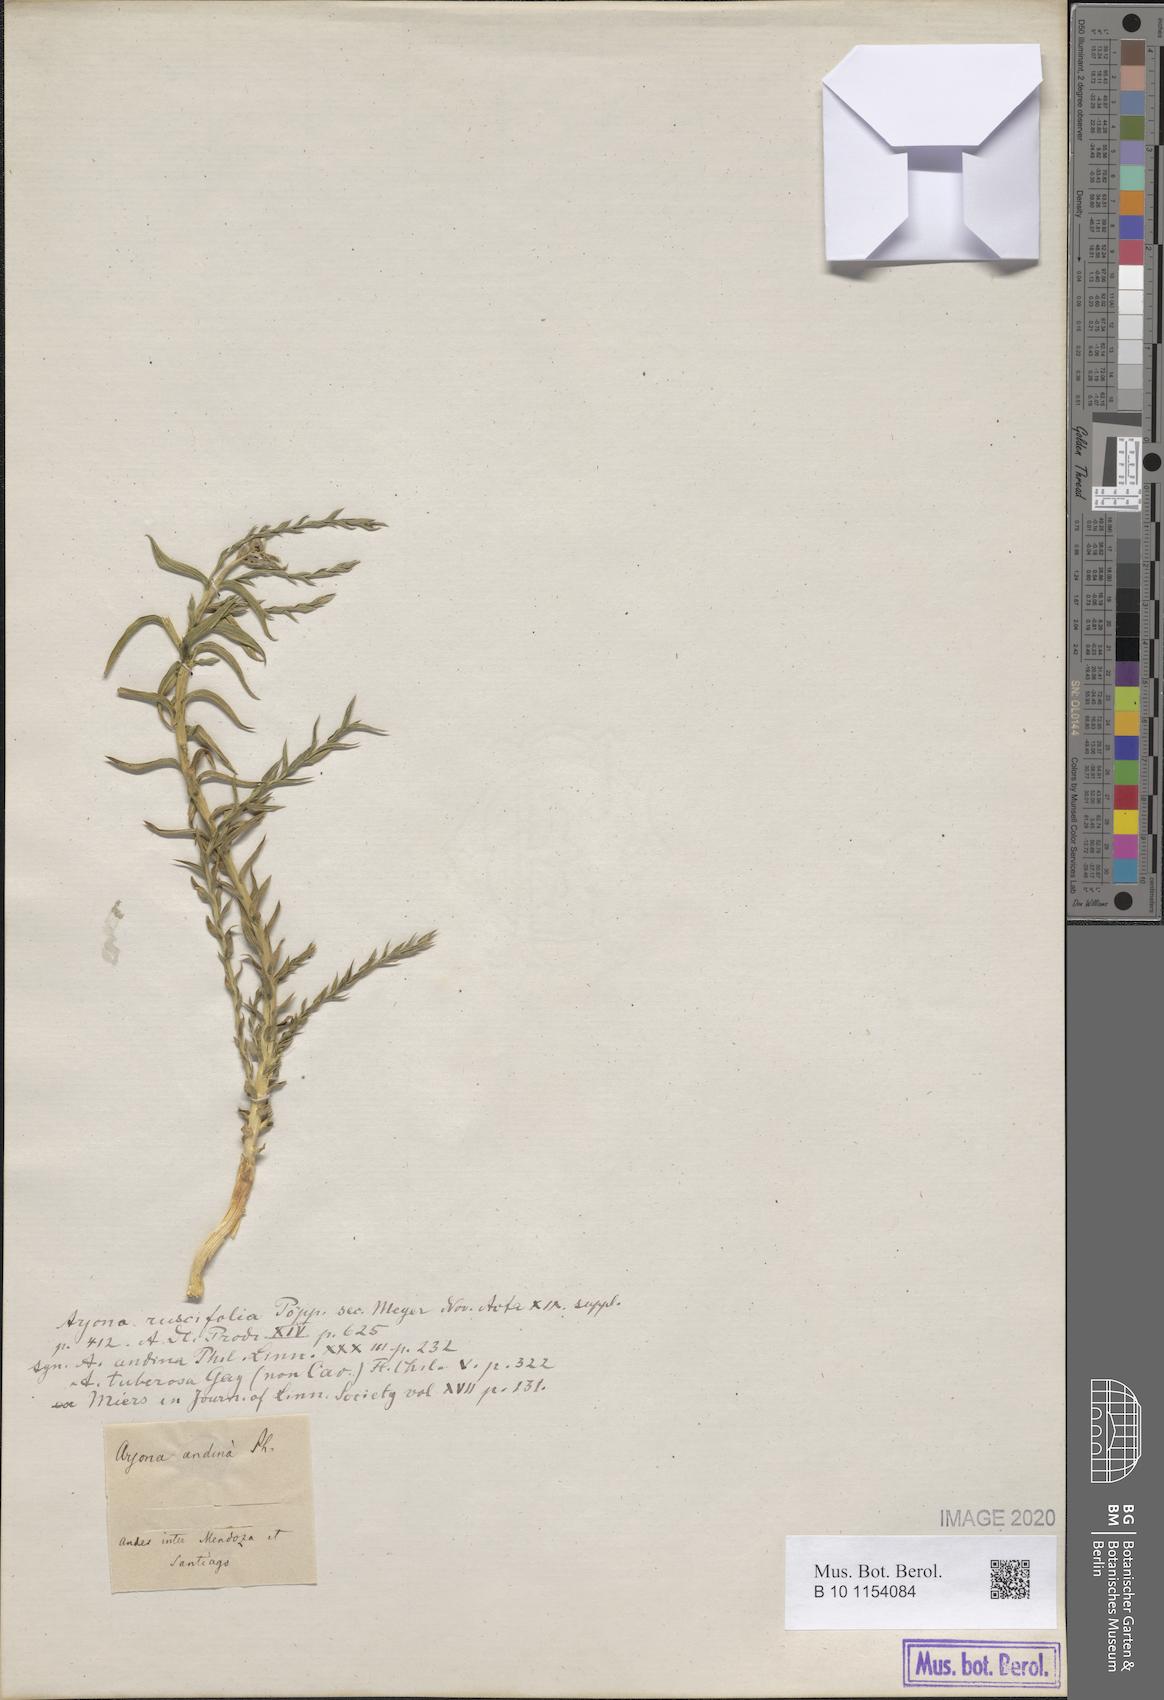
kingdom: Plantae
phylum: Tracheophyta
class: Magnoliopsida
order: Santalales
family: Schoepfiaceae
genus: Arjona
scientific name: Arjona patagonica
